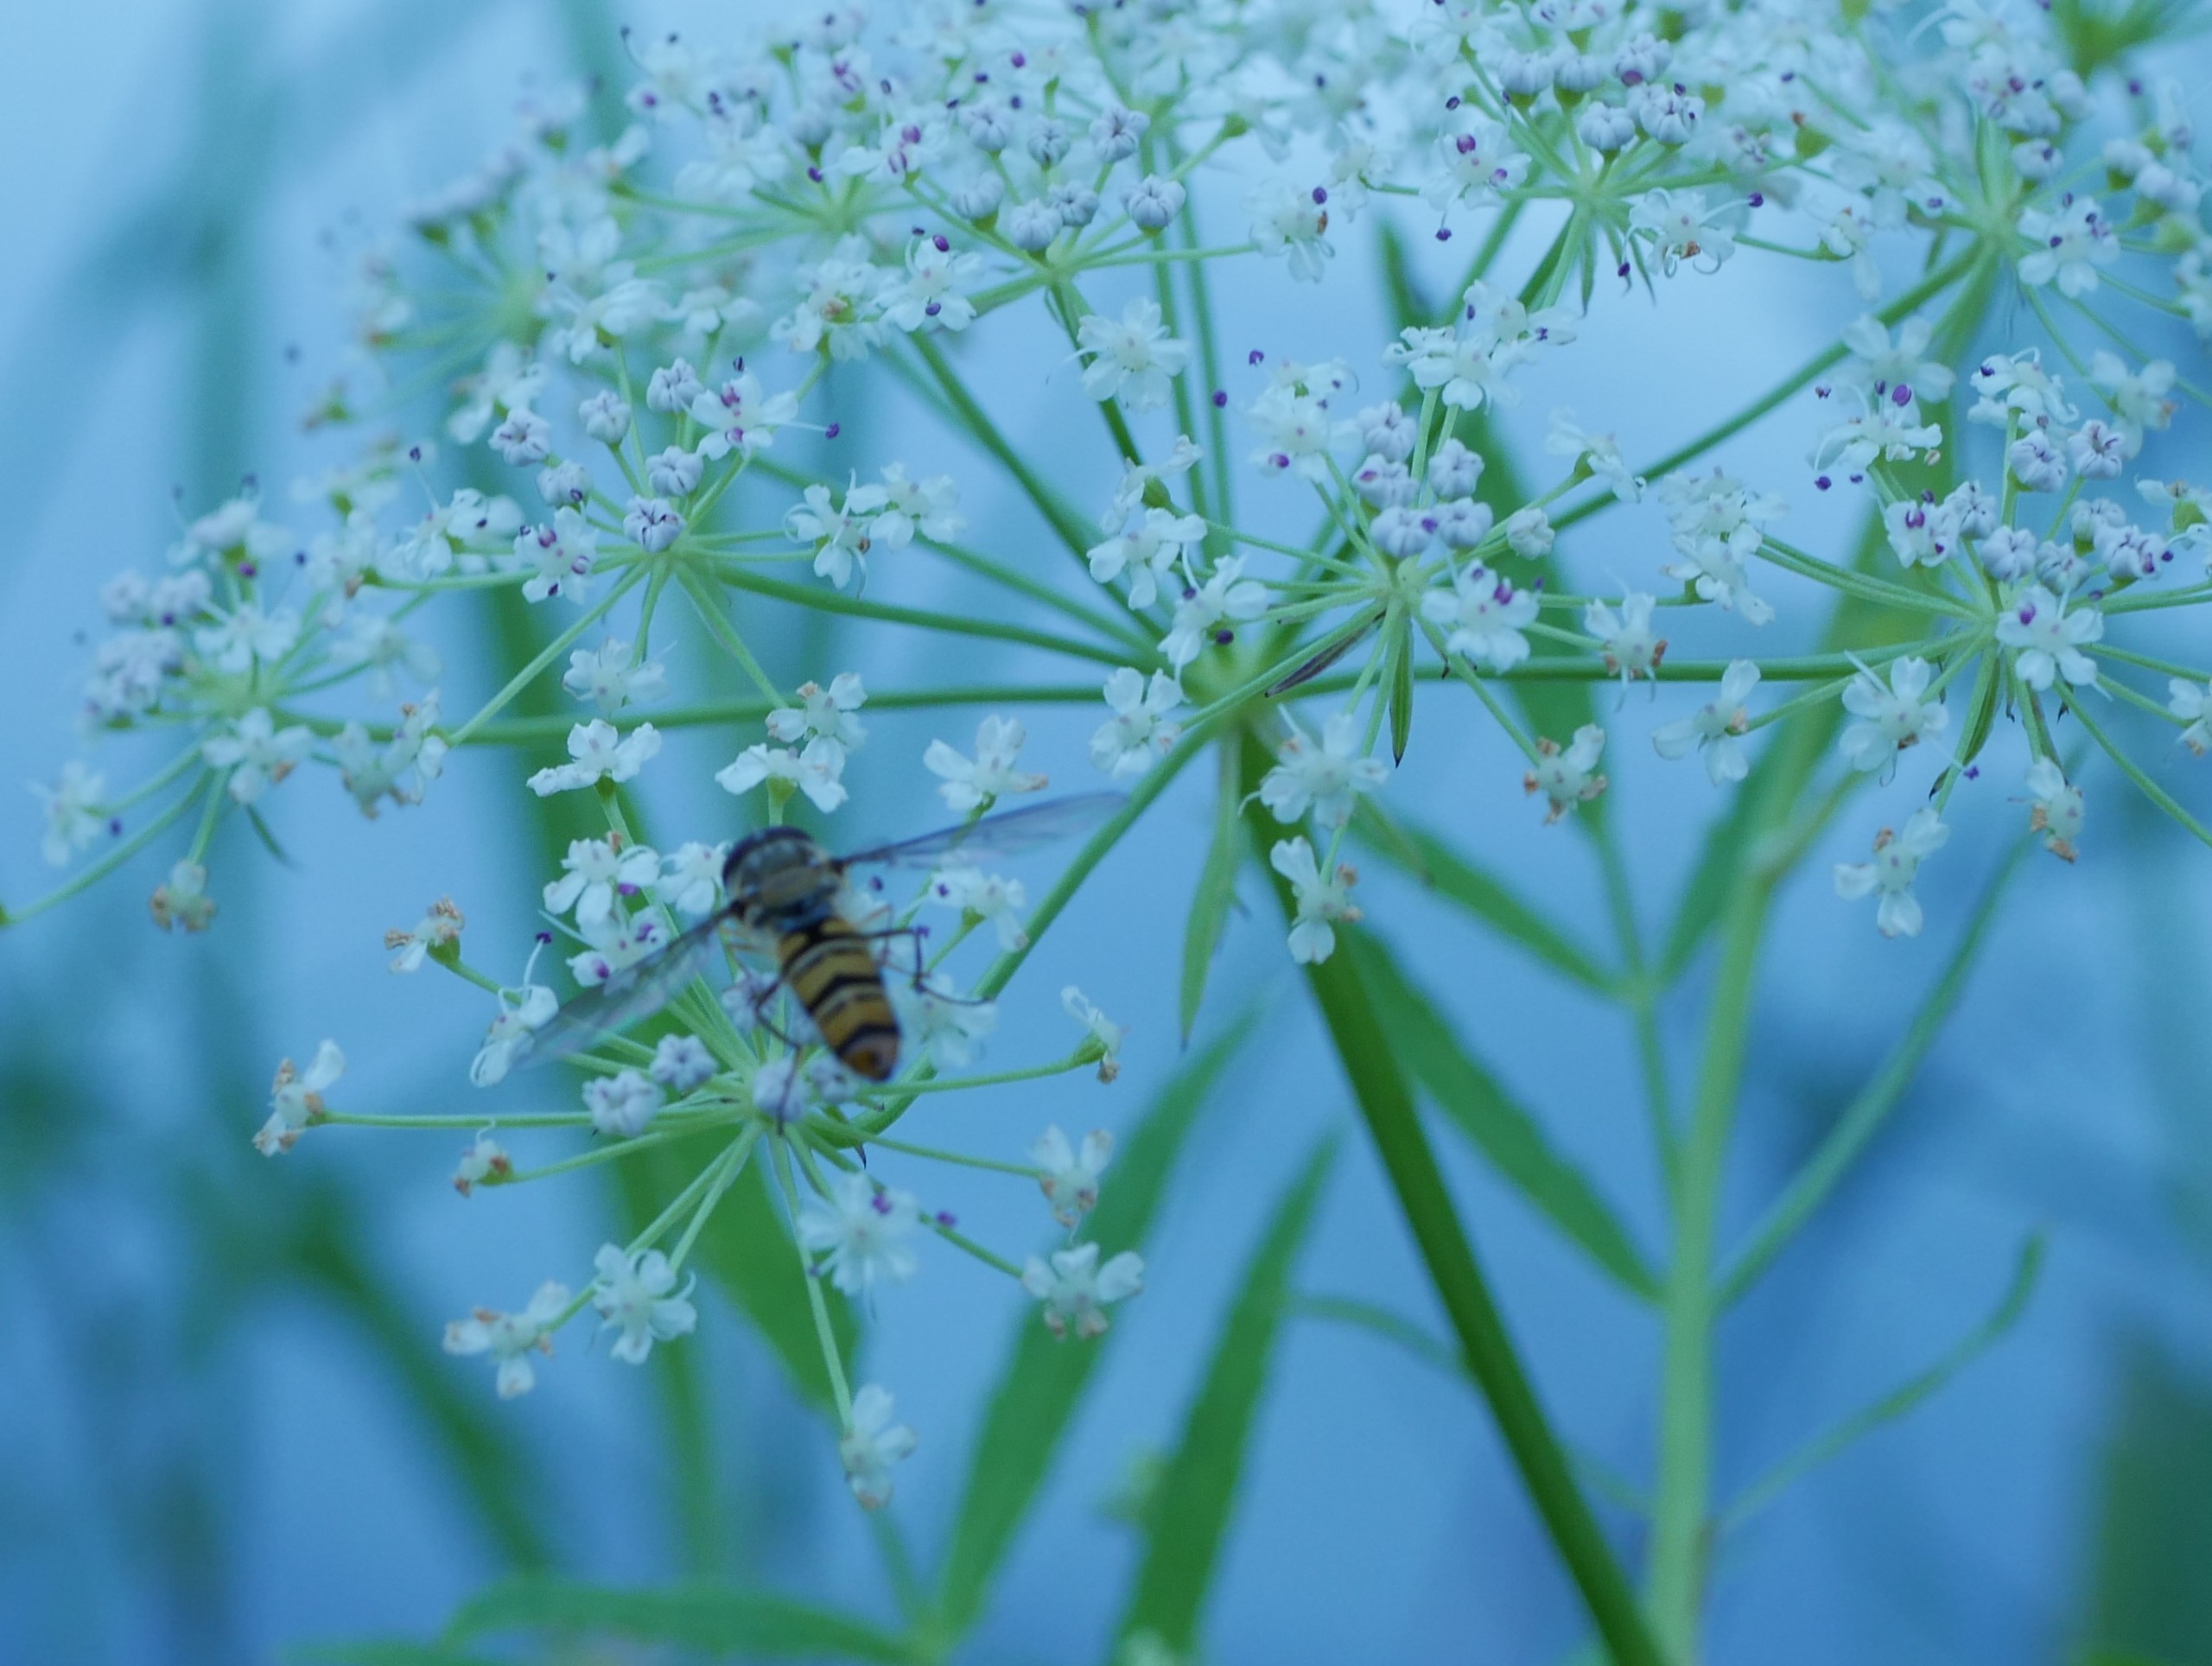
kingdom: Animalia
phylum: Arthropoda
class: Insecta
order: Diptera
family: Syrphidae
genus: Episyrphus
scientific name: Episyrphus balteatus
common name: Dobbeltbåndet svirreflue
